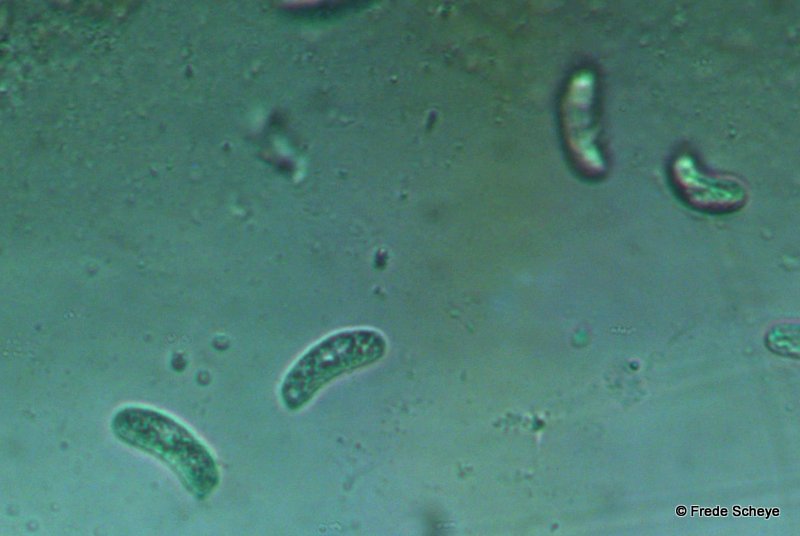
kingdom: Fungi
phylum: Basidiomycota
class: Agaricomycetes
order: Corticiales
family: Vuilleminiaceae
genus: Vuilleminia
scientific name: Vuilleminia coryli
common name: hassel-barksprænger
